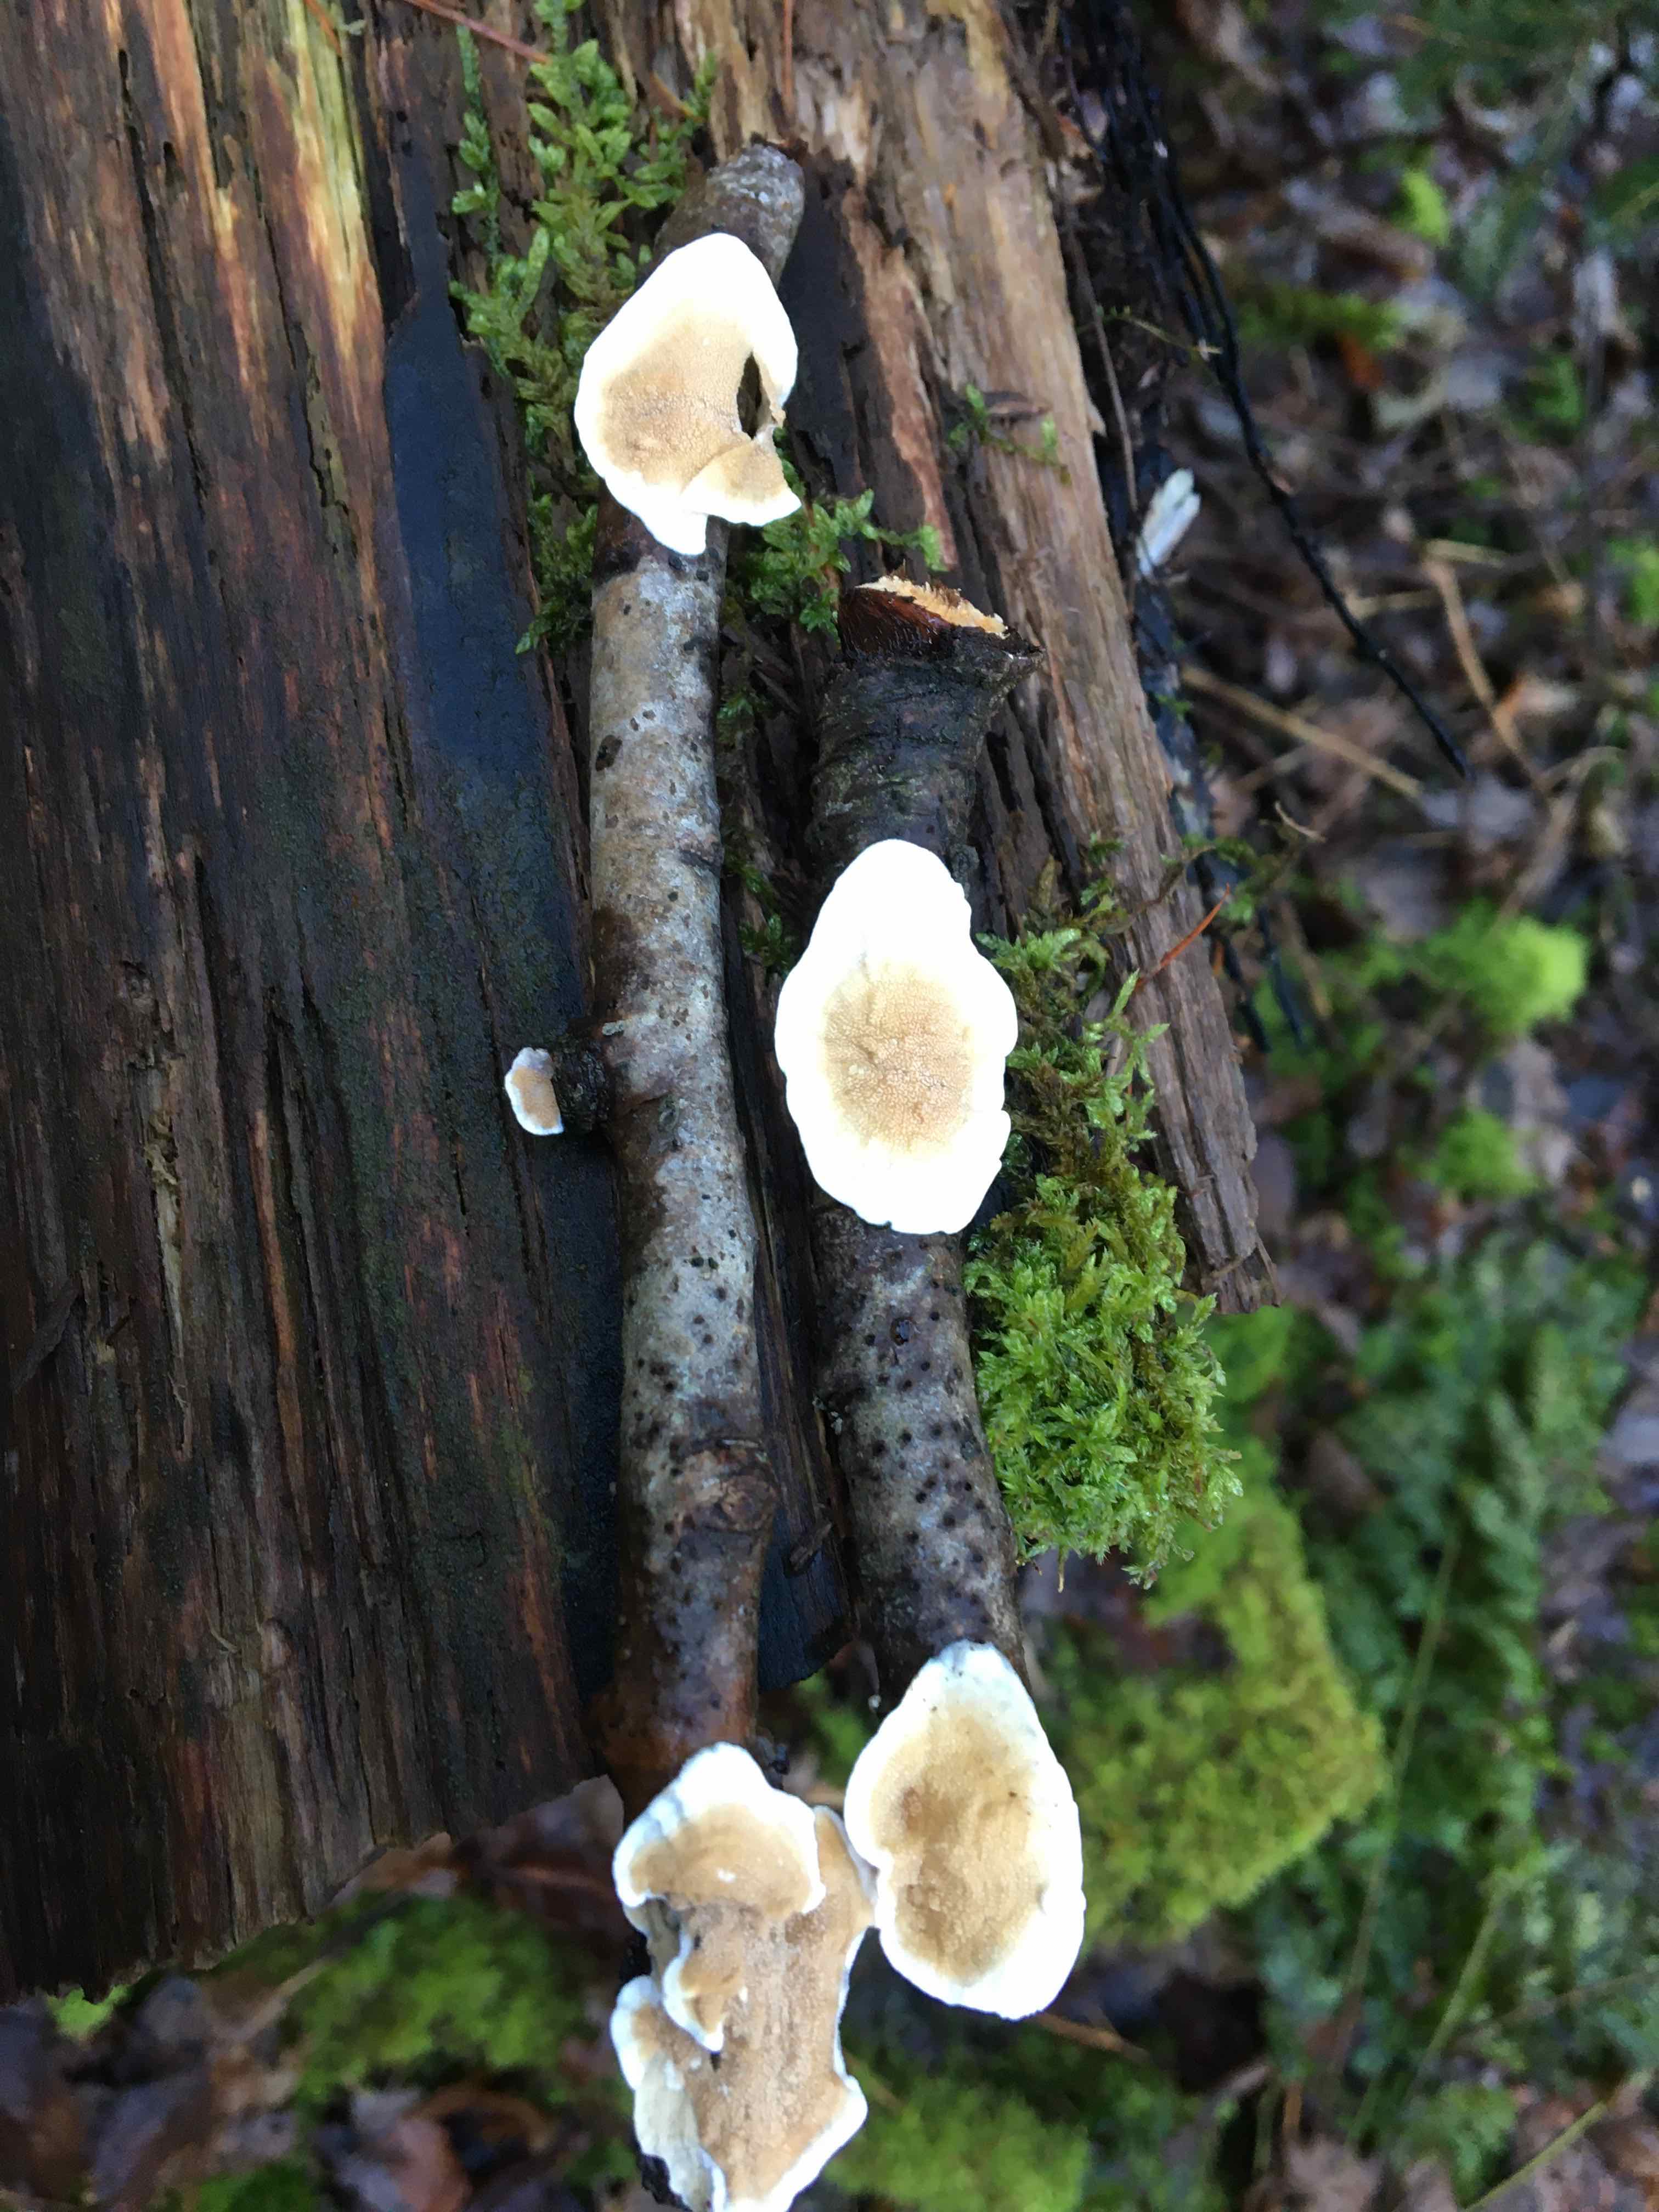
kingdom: Fungi
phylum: Basidiomycota
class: Agaricomycetes
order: Polyporales
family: Irpicaceae
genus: Byssomerulius
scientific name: Byssomerulius corium
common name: læder-åresvamp
